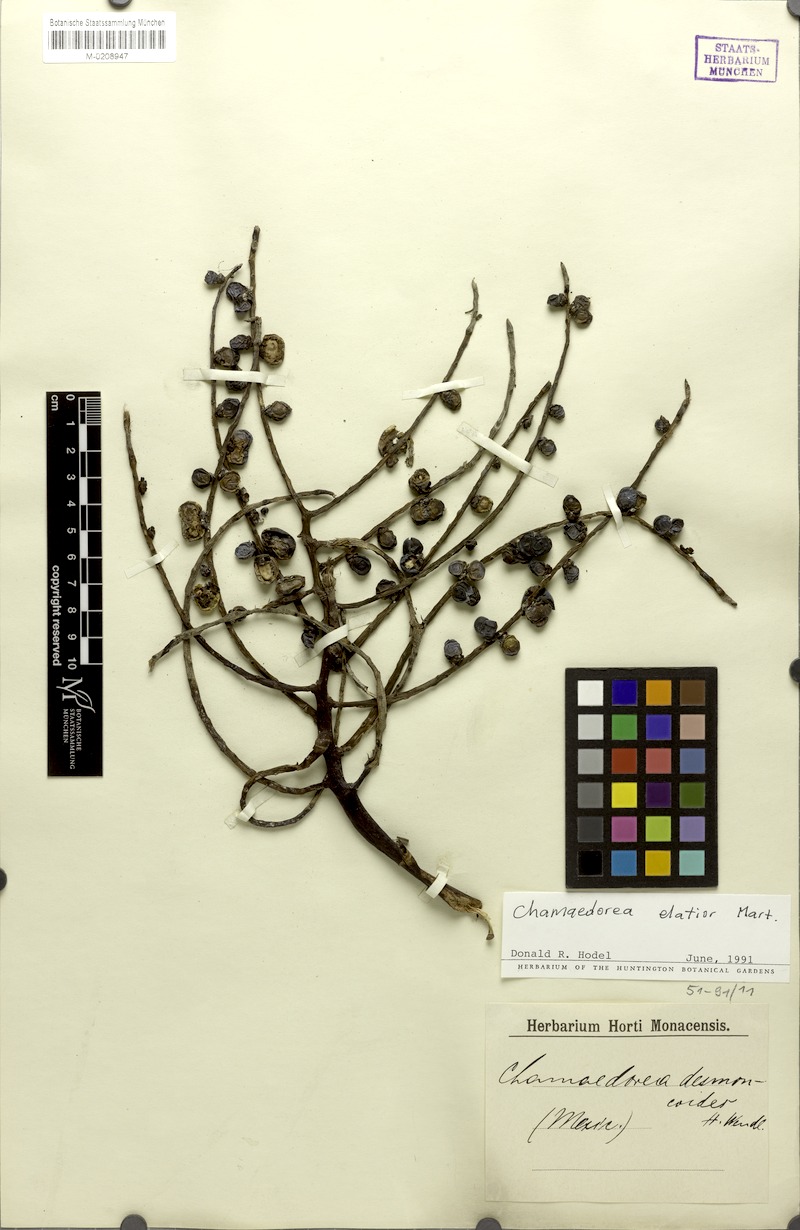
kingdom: Plantae
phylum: Tracheophyta
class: Liliopsida
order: Arecales
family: Arecaceae
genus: Chamaedorea
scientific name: Chamaedorea elatior
